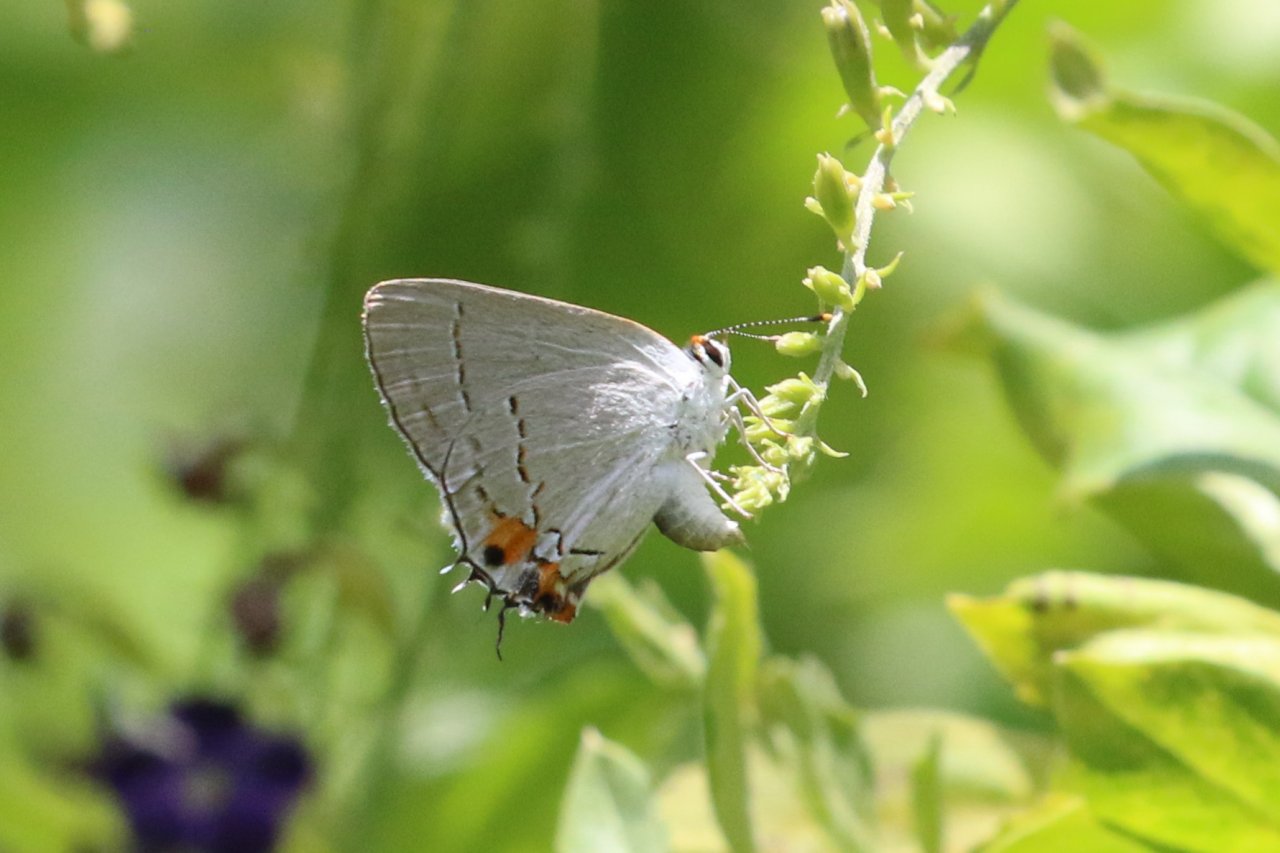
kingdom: Animalia
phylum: Arthropoda
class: Insecta
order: Lepidoptera
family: Lycaenidae
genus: Strymon
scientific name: Strymon melinus
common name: Gray Hairstreak
